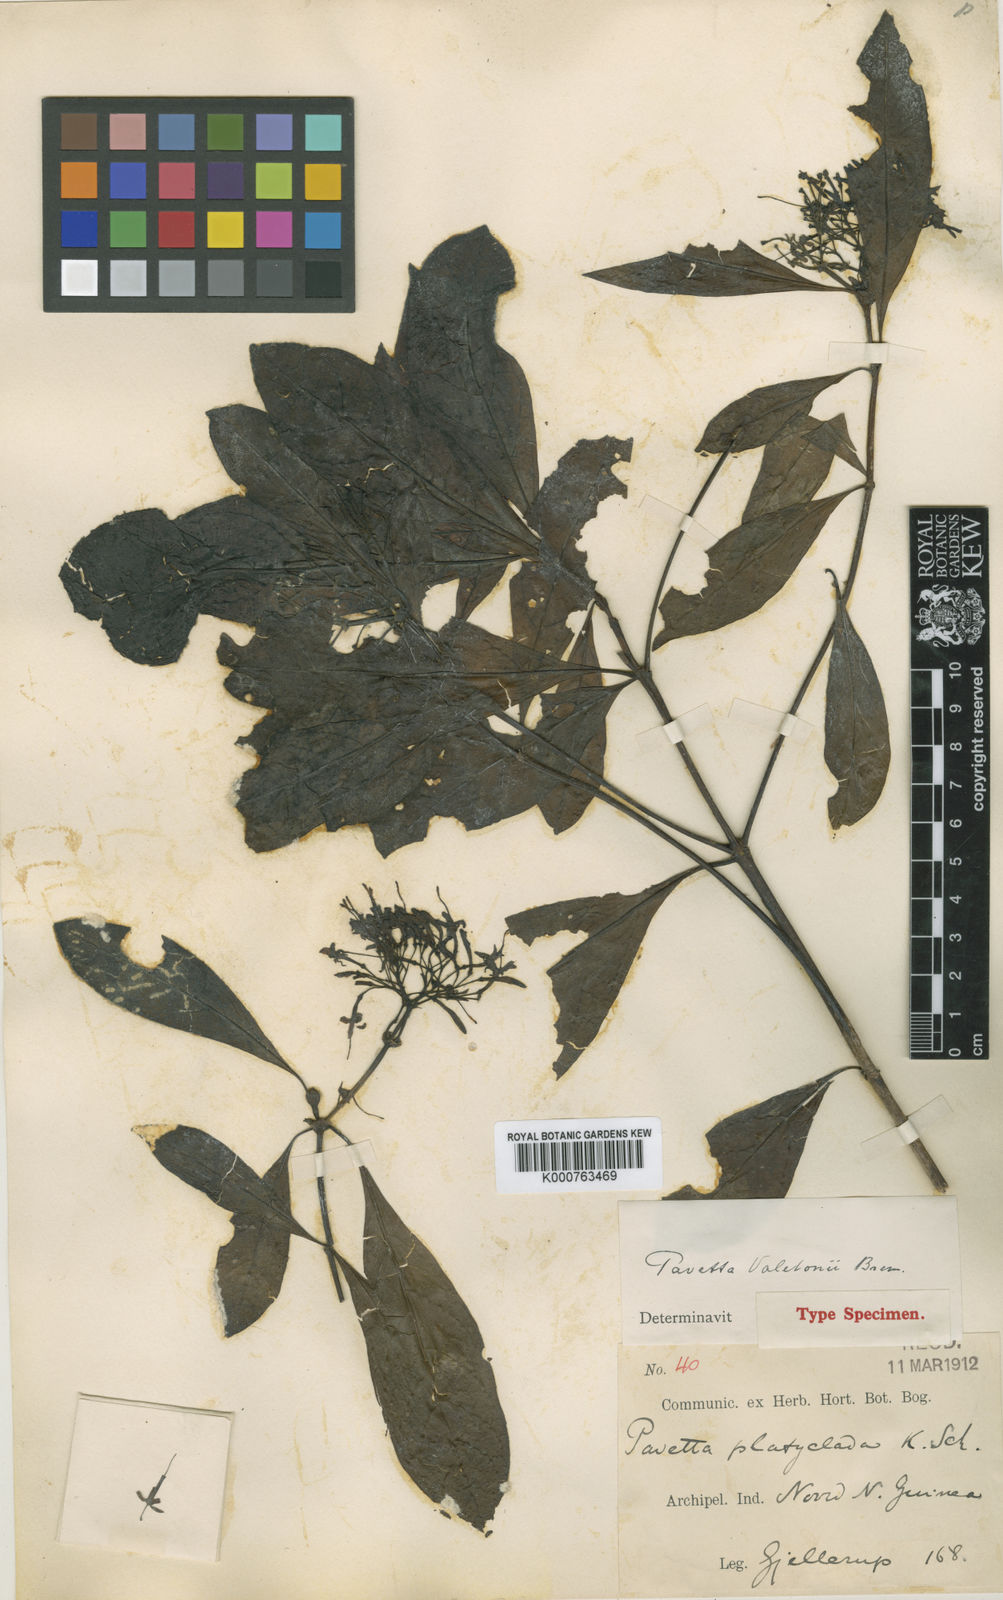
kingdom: Plantae
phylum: Tracheophyta
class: Magnoliopsida
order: Gentianales
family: Rubiaceae
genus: Pavetta
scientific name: Pavetta valetonii
